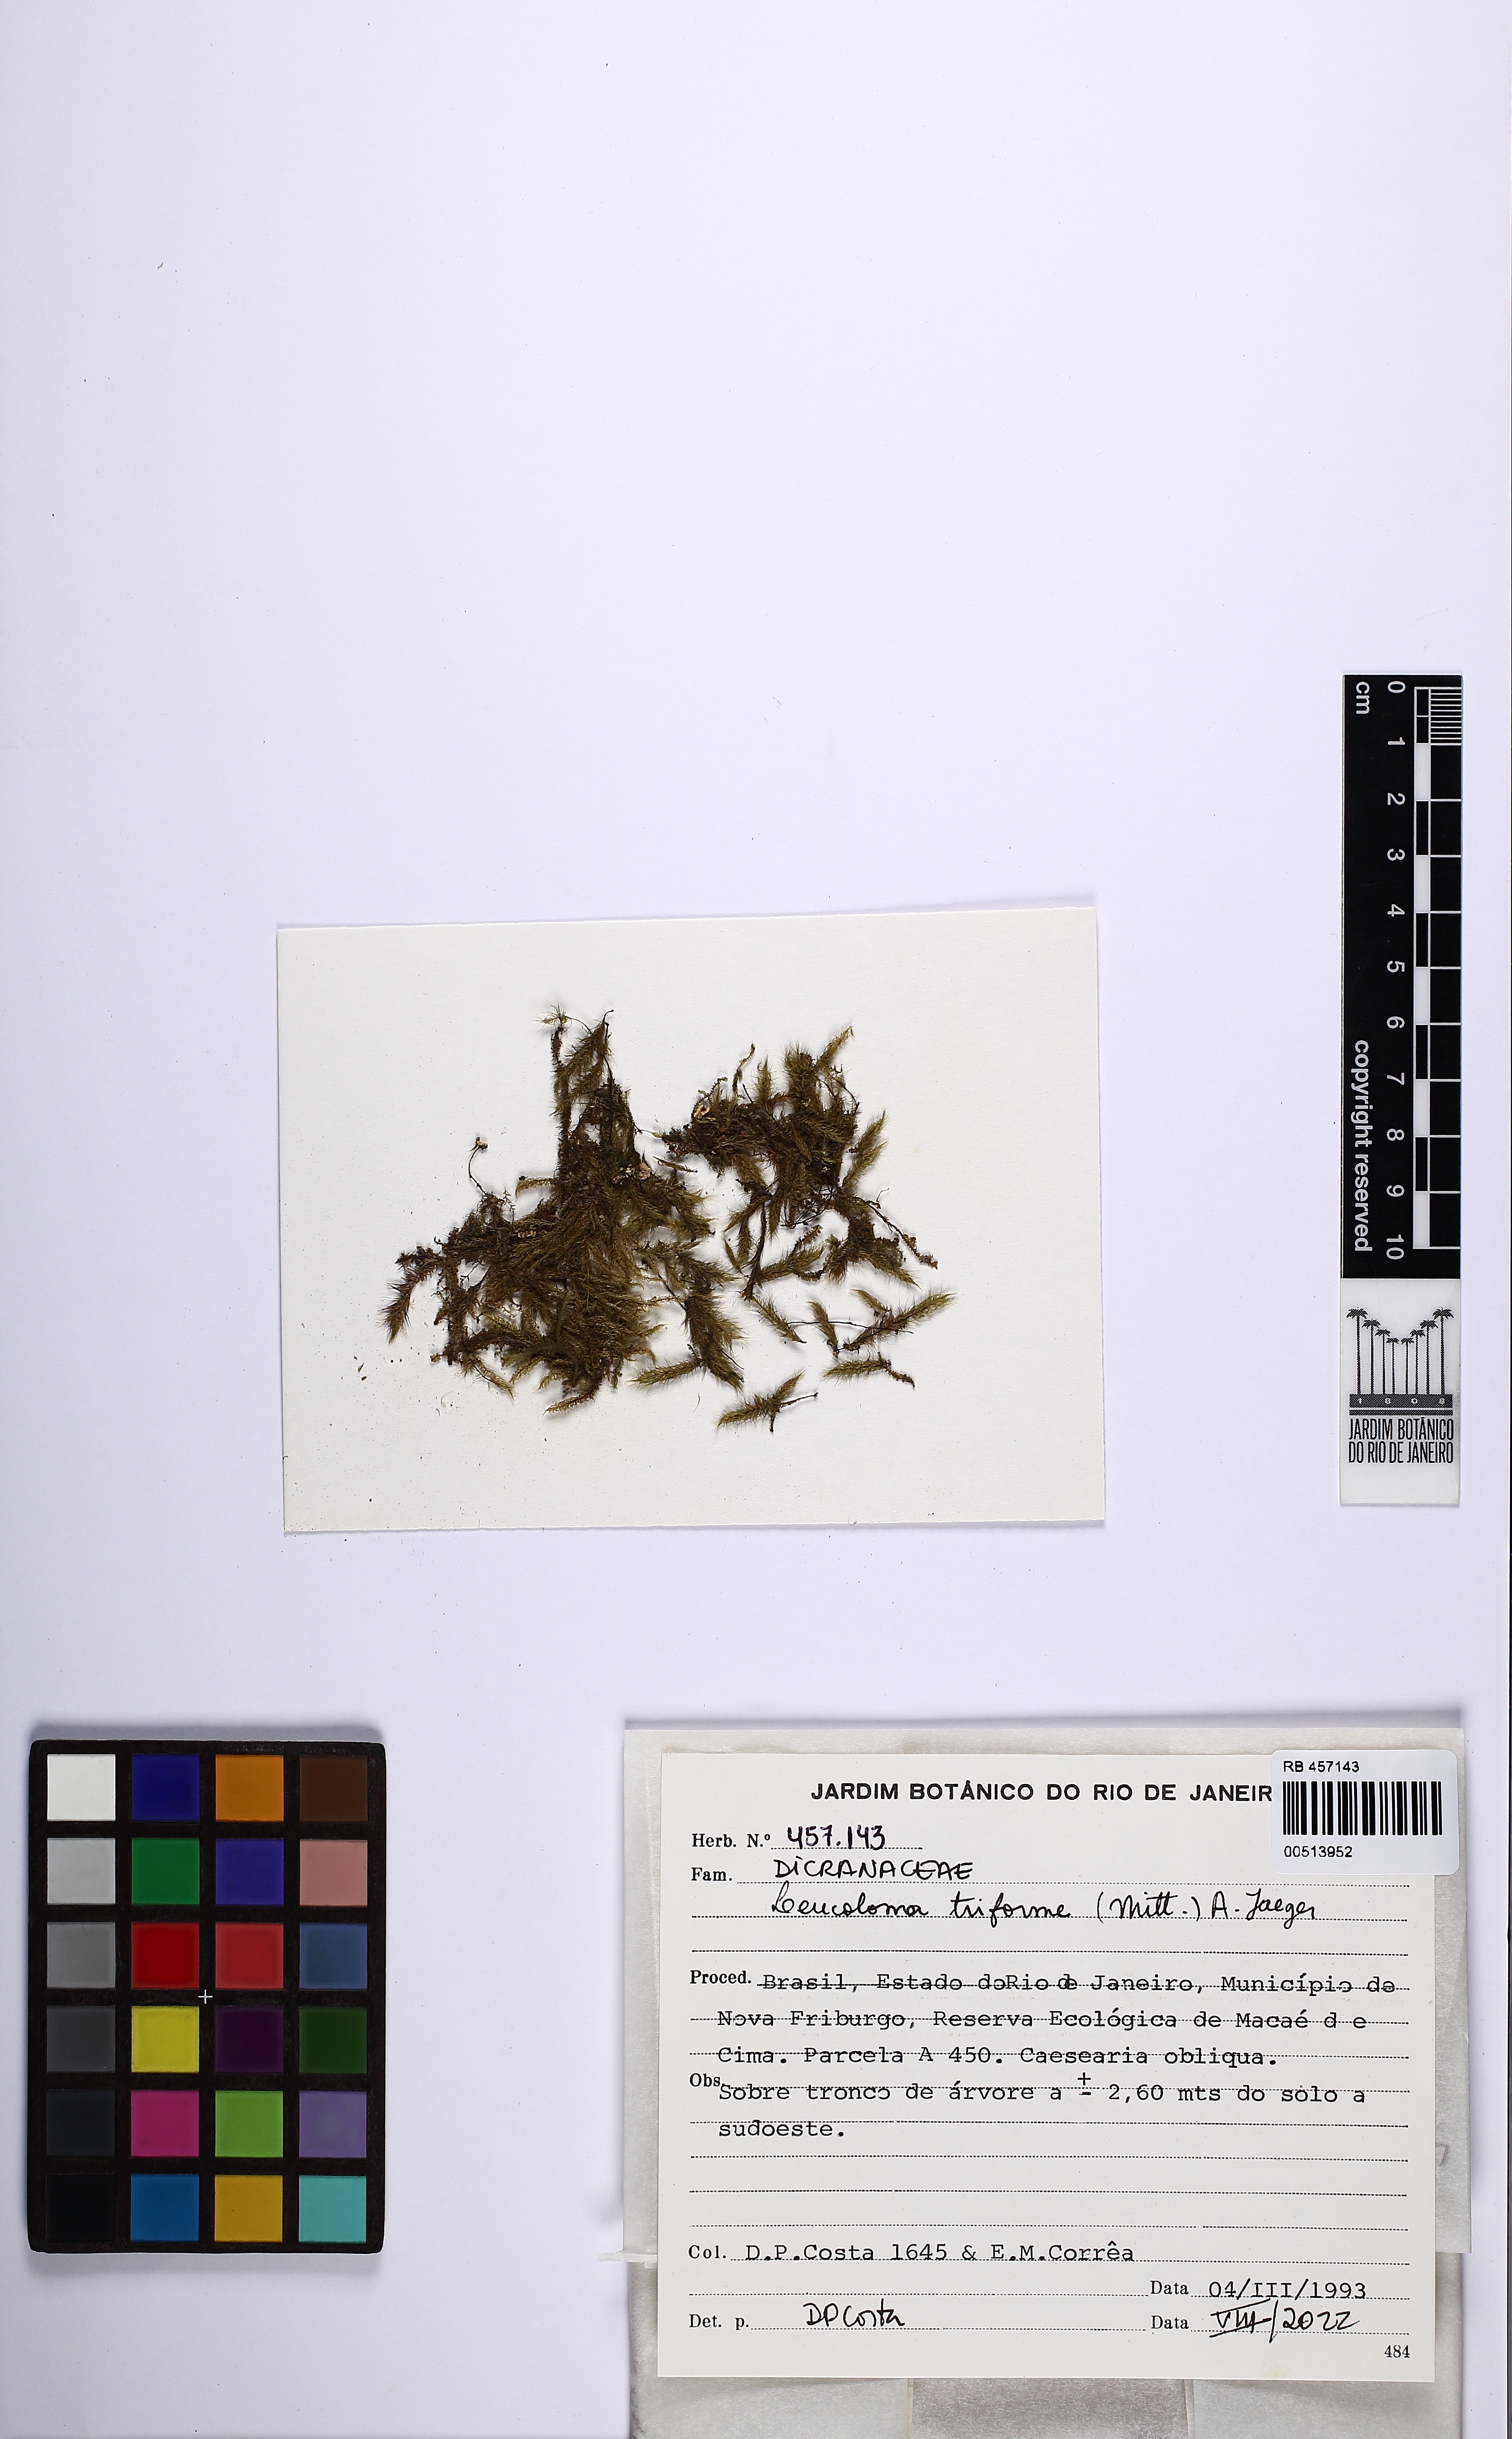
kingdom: Plantae
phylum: Bryophyta
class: Bryopsida
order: Dicranales
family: Dicranaceae
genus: Leucoloma
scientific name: Leucoloma triforme
